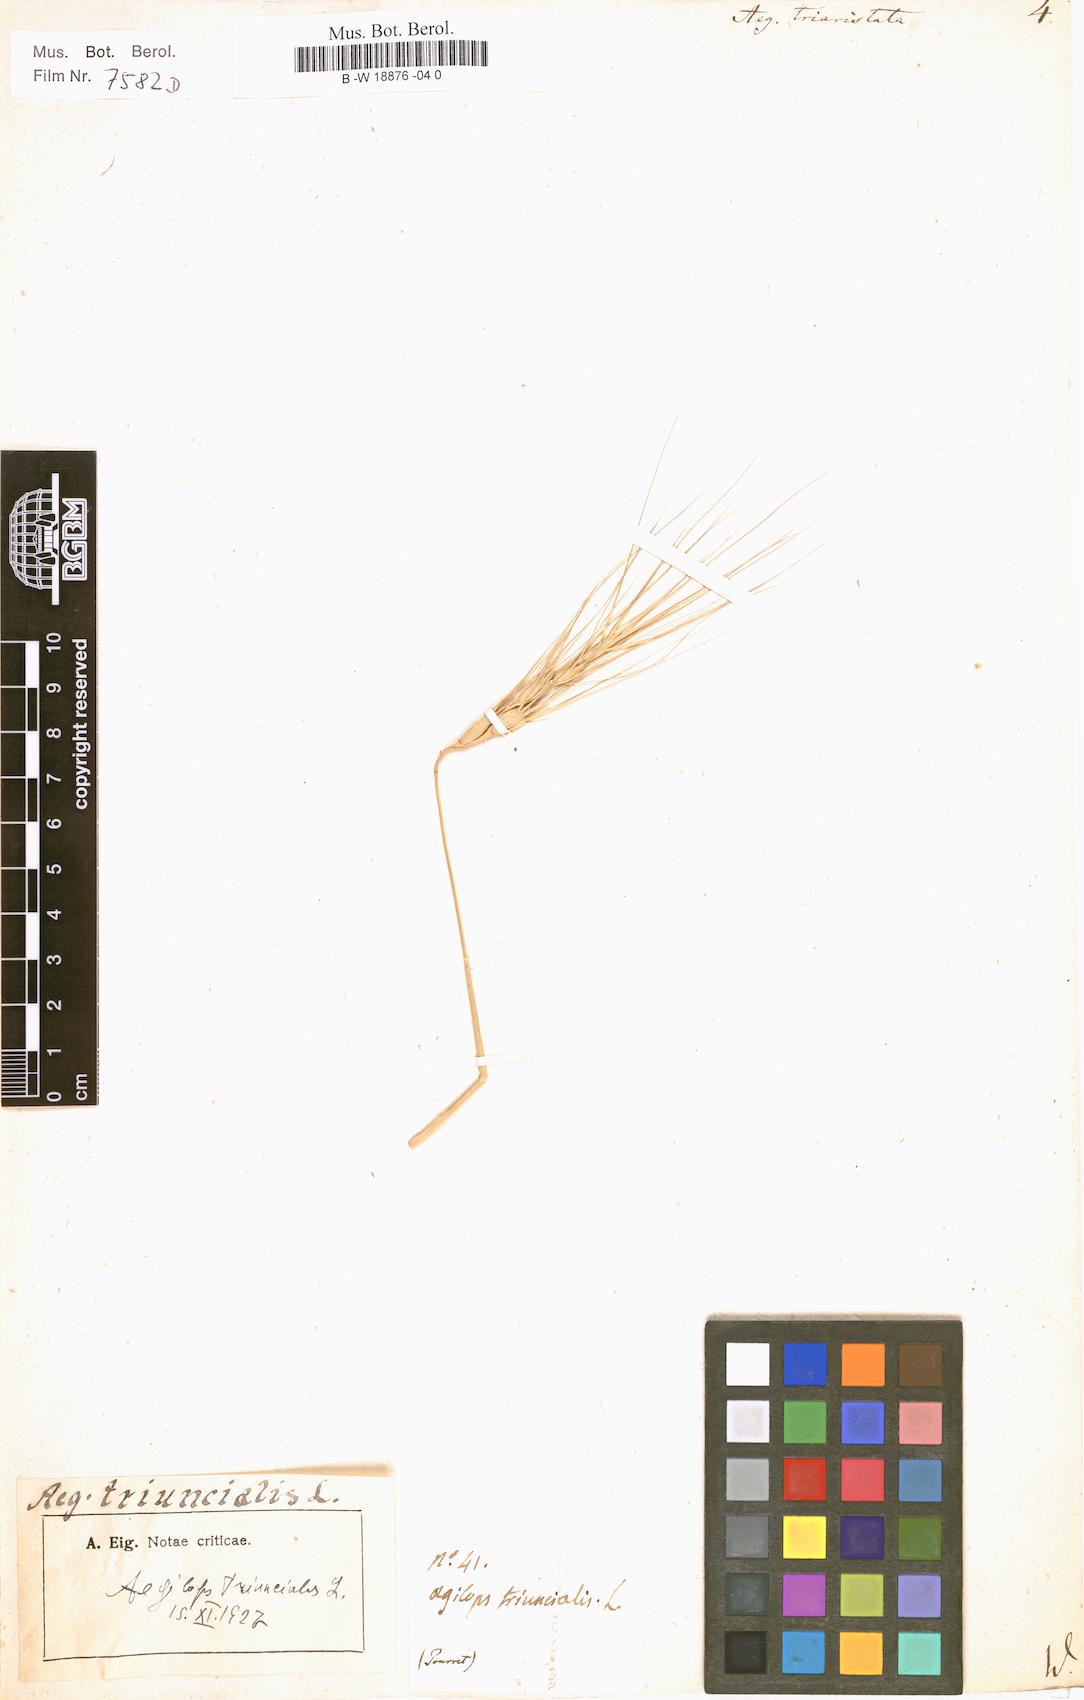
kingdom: Plantae
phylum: Tracheophyta
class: Liliopsida
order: Poales
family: Poaceae
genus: Aegilops
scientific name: Aegilops neglecta
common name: Three-awn goat grass
